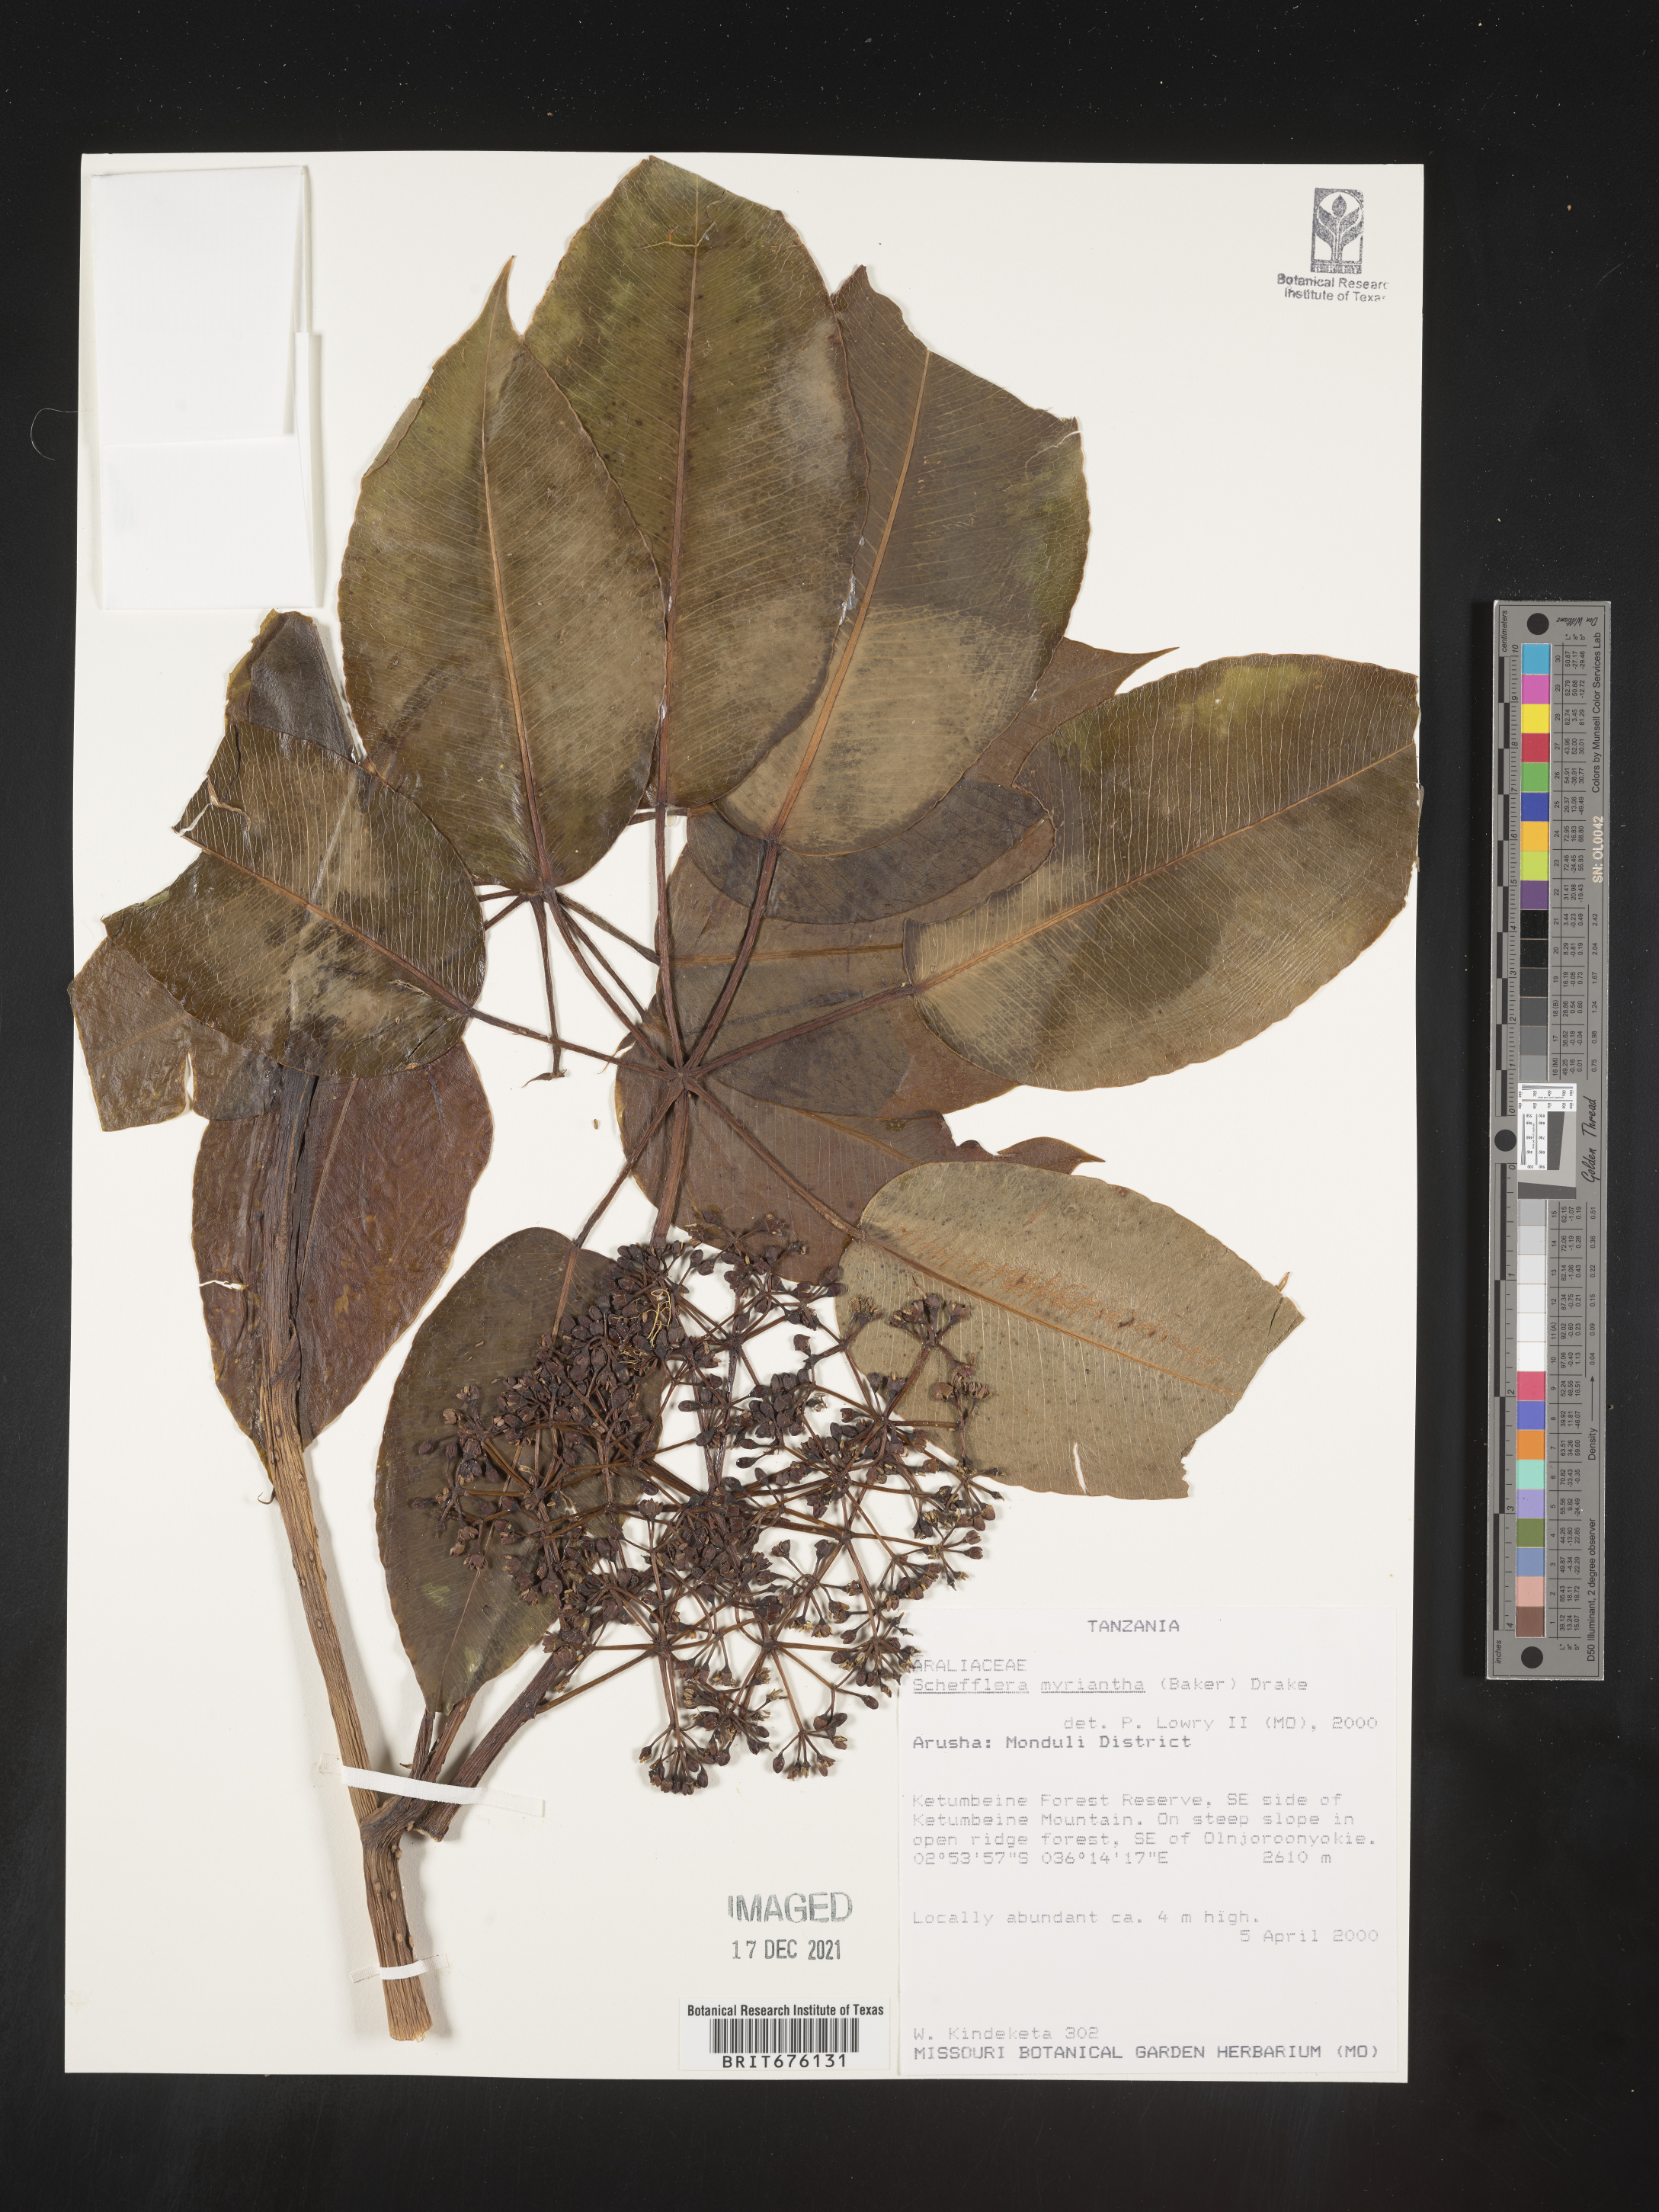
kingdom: Plantae
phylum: Tracheophyta
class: Magnoliopsida
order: Apiales
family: Araliaceae
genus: Schefflera
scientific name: Schefflera
